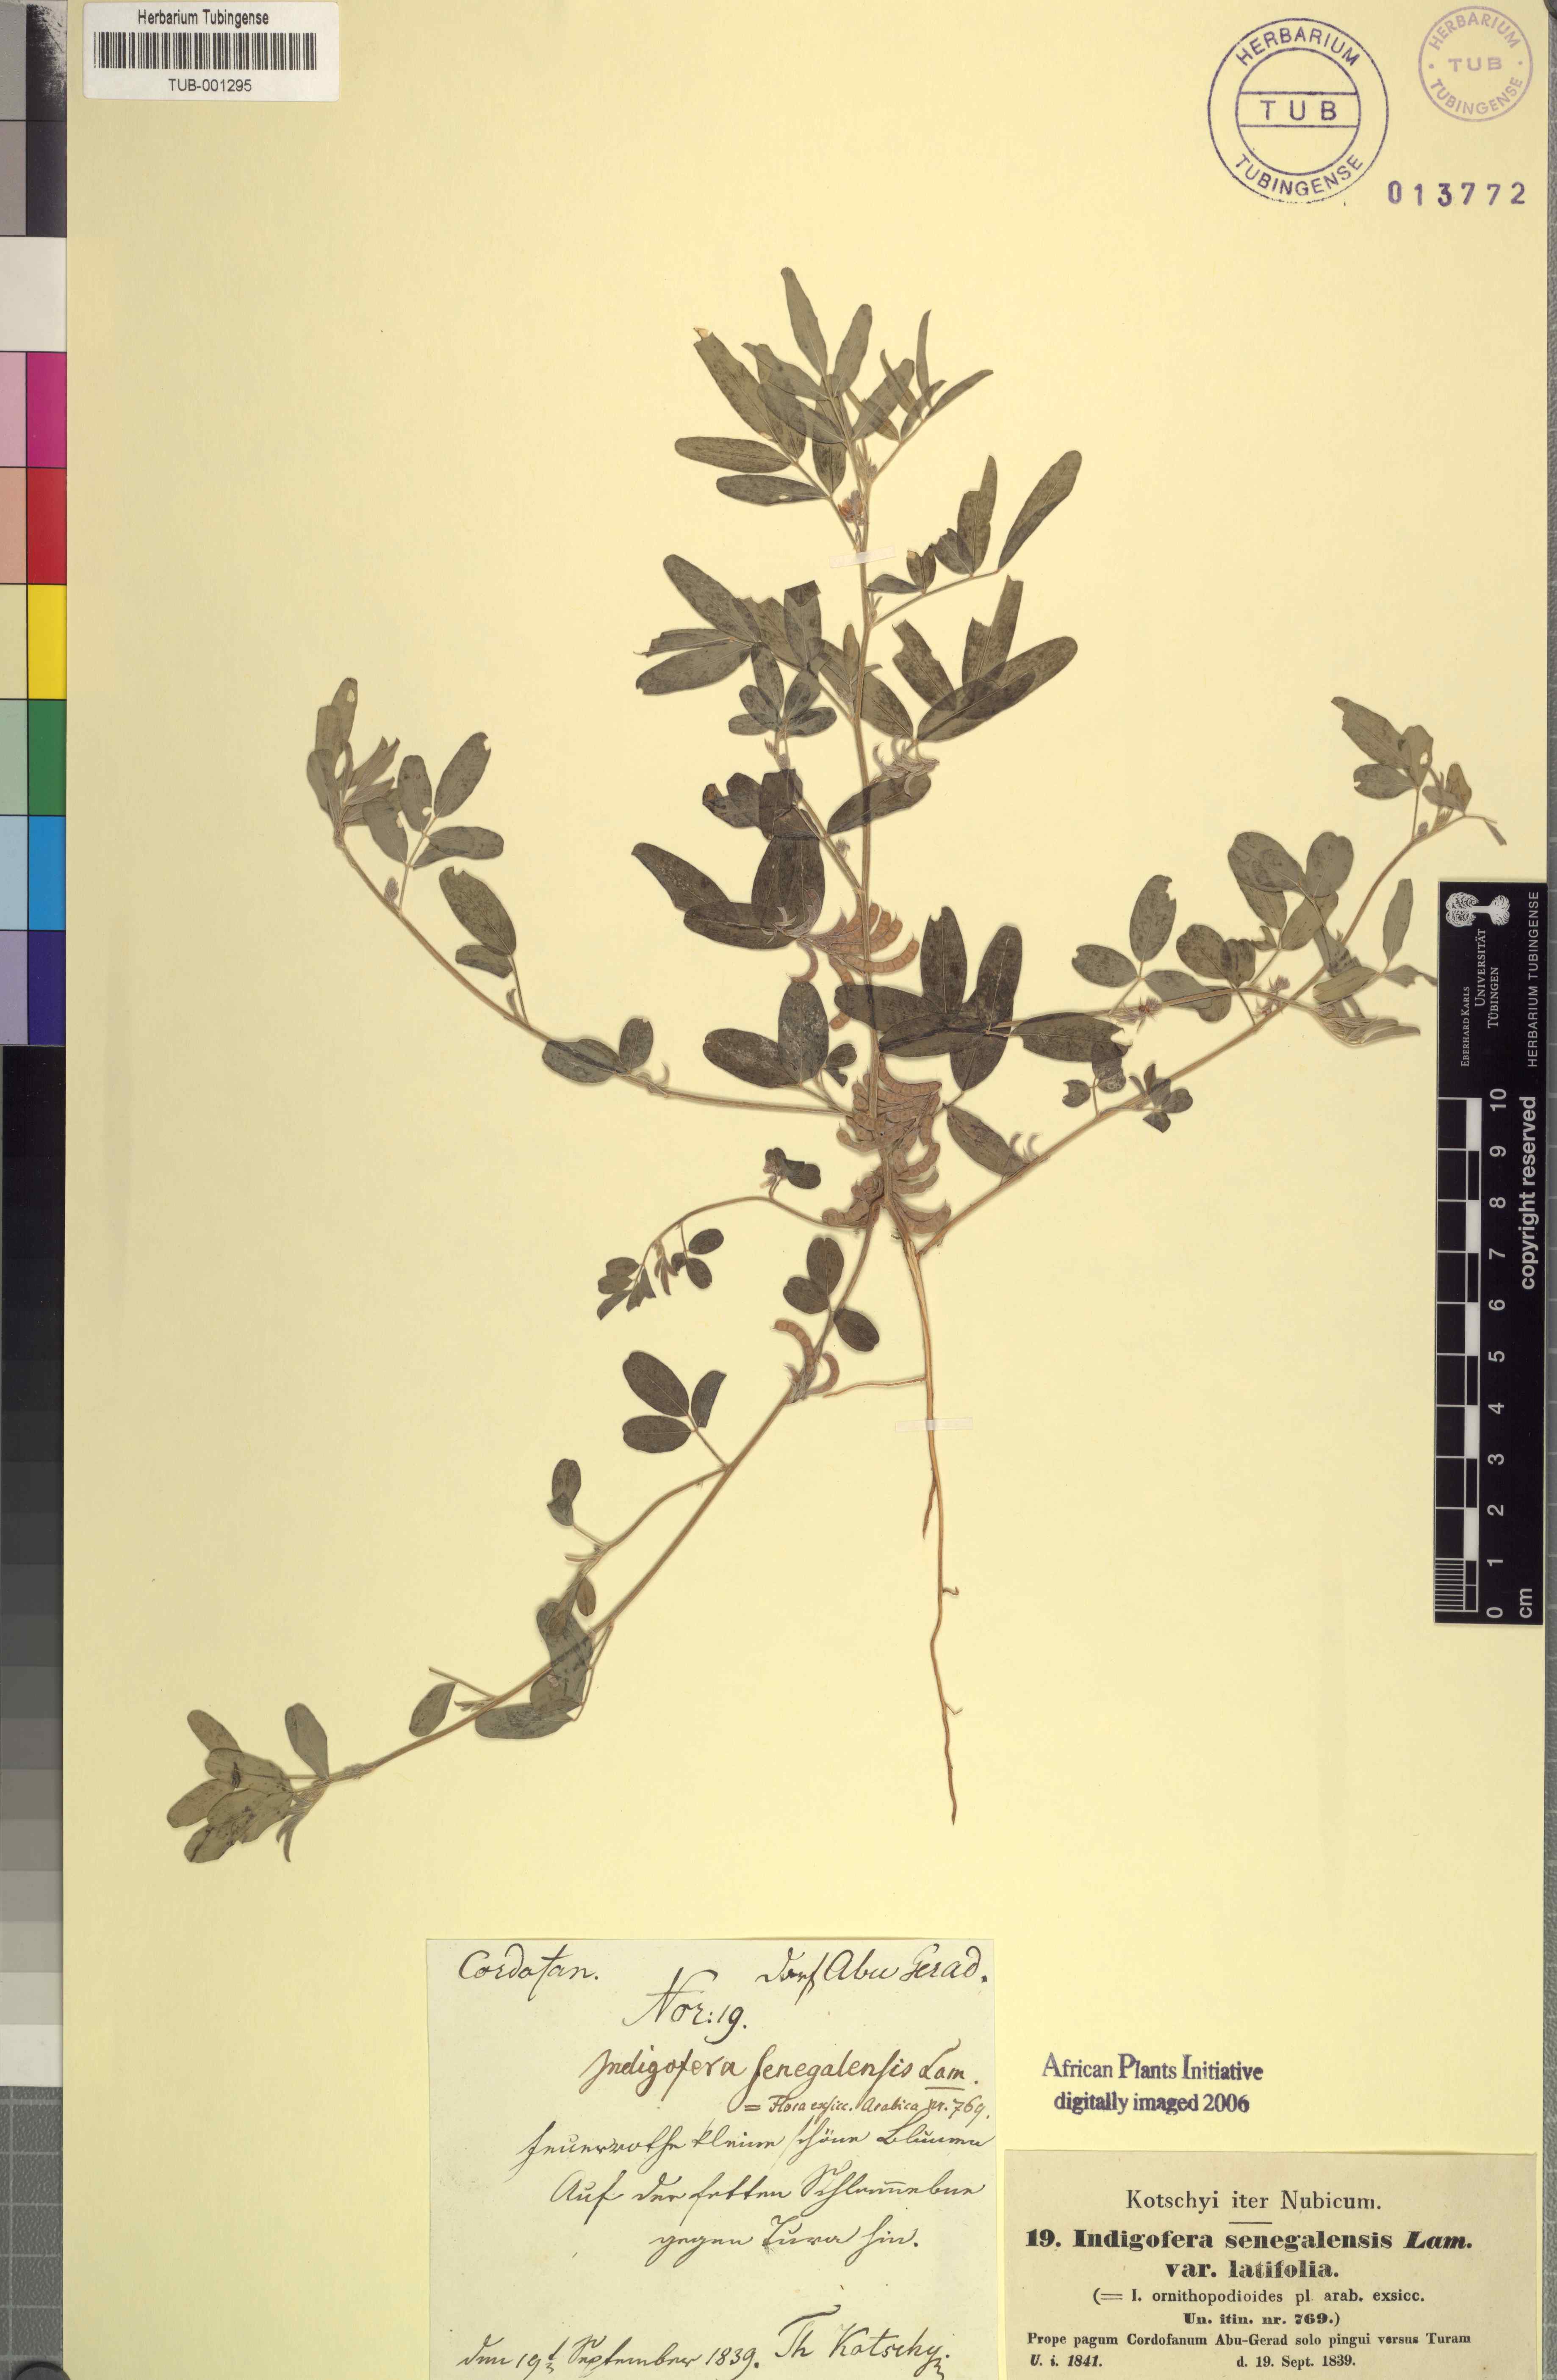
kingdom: Plantae
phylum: Tracheophyta
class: Magnoliopsida
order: Fabales
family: Fabaceae
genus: Indigofera
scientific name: Indigofera senegalensis
